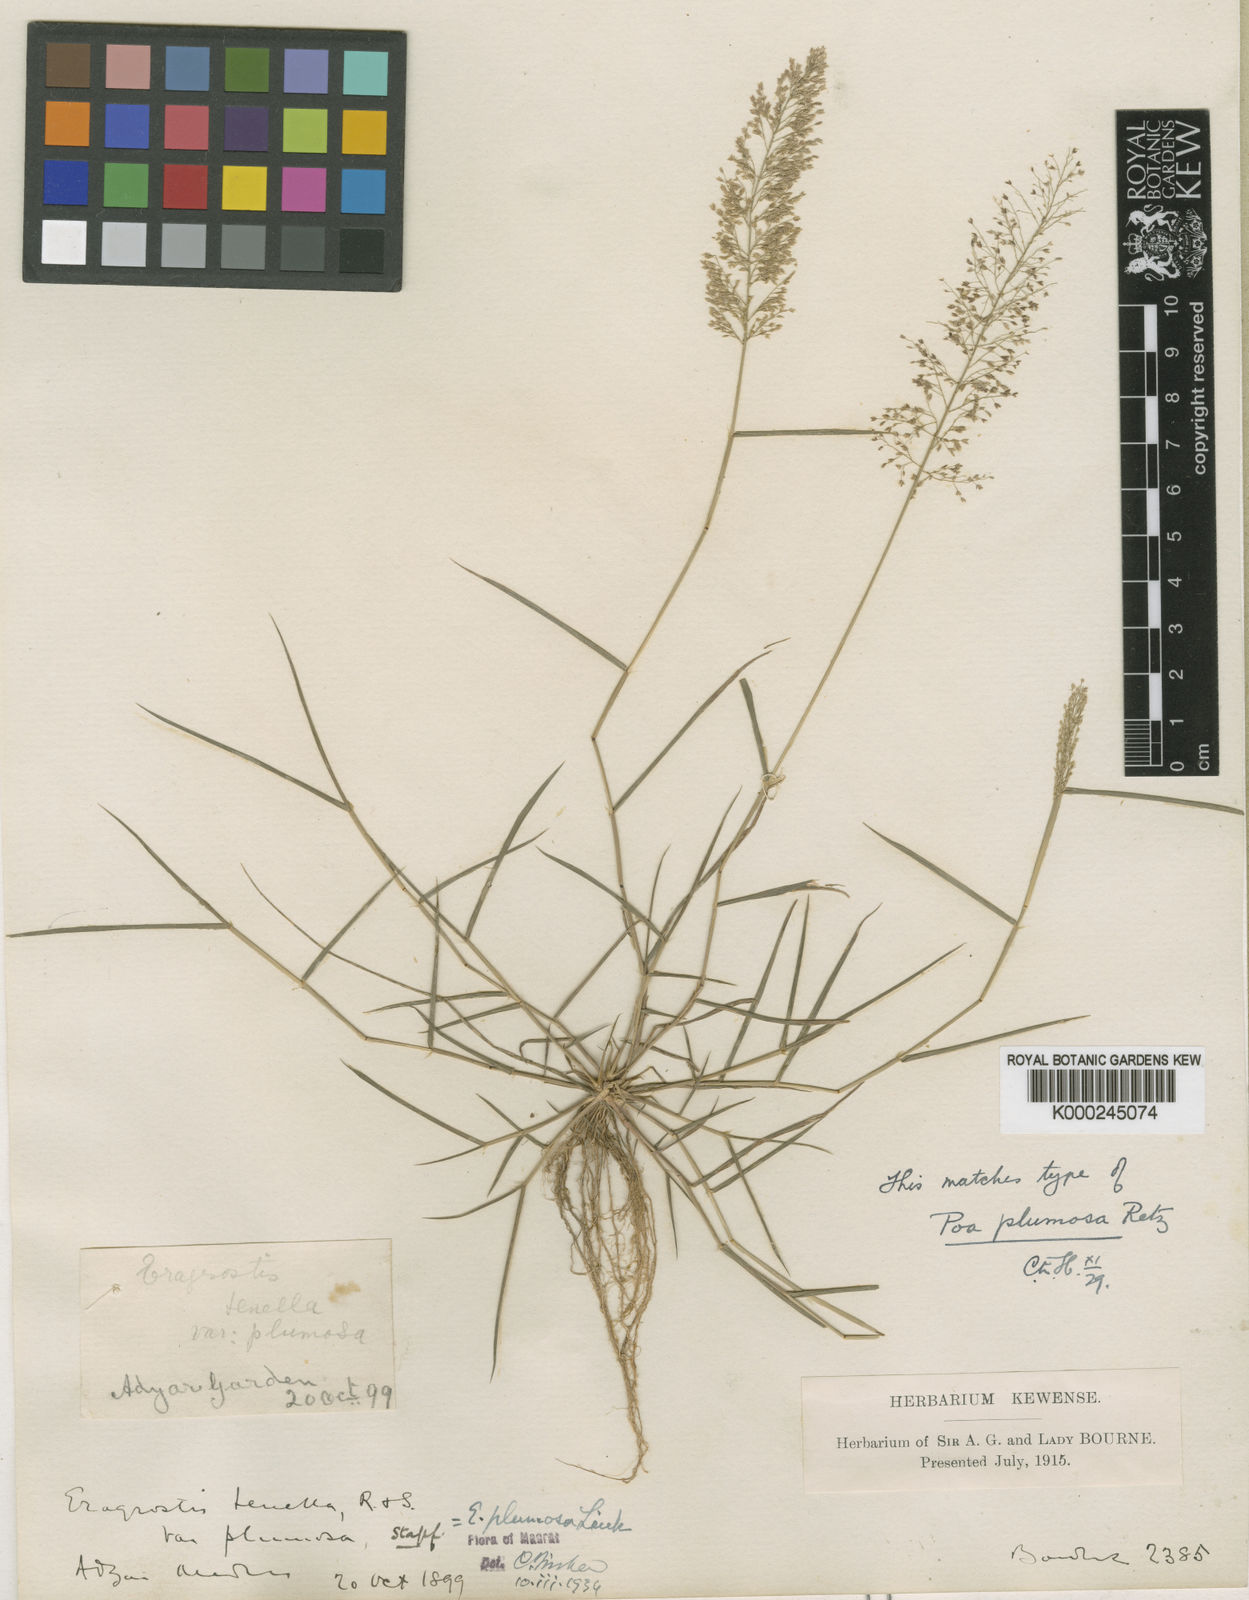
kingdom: Plantae
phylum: Tracheophyta
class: Liliopsida
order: Poales
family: Poaceae
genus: Eragrostis
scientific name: Eragrostis tenella
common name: Japanese lovegrass
